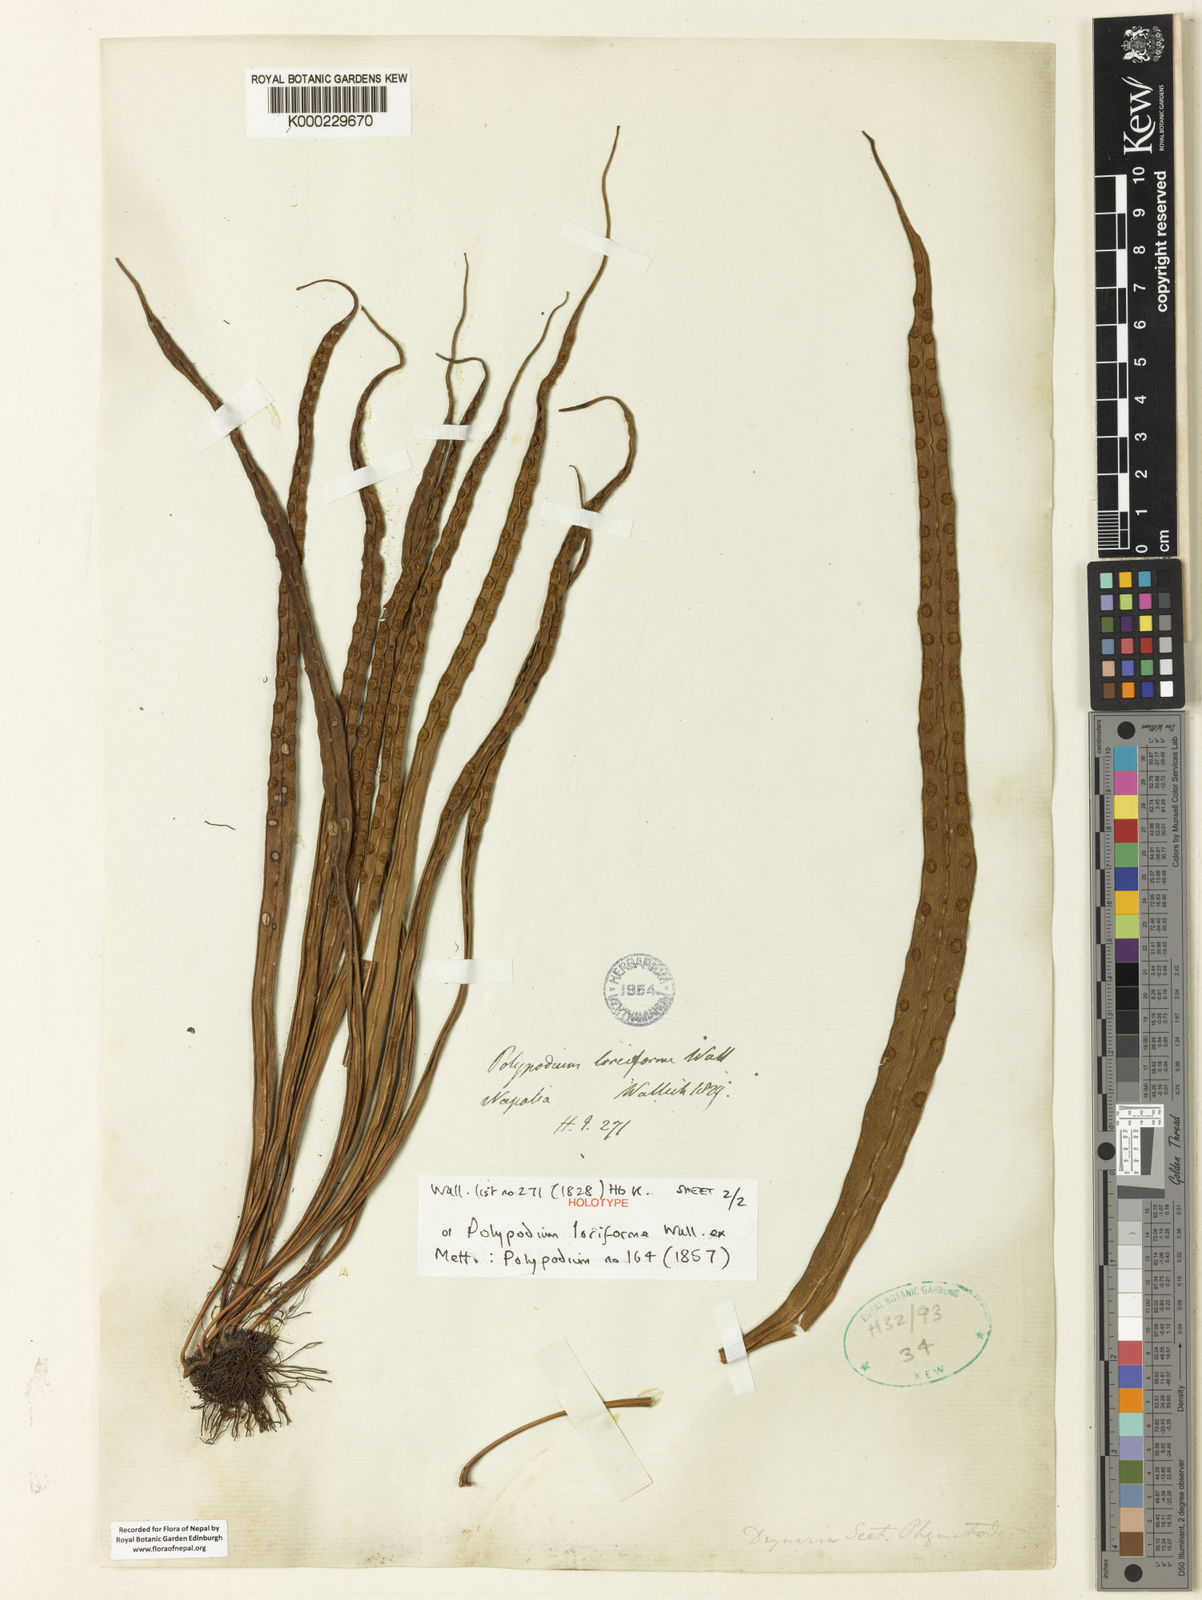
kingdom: Plantae
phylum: Tracheophyta
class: Polypodiopsida
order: Polypodiales
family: Polypodiaceae
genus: Lepisorus
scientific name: Lepisorus loriformis
